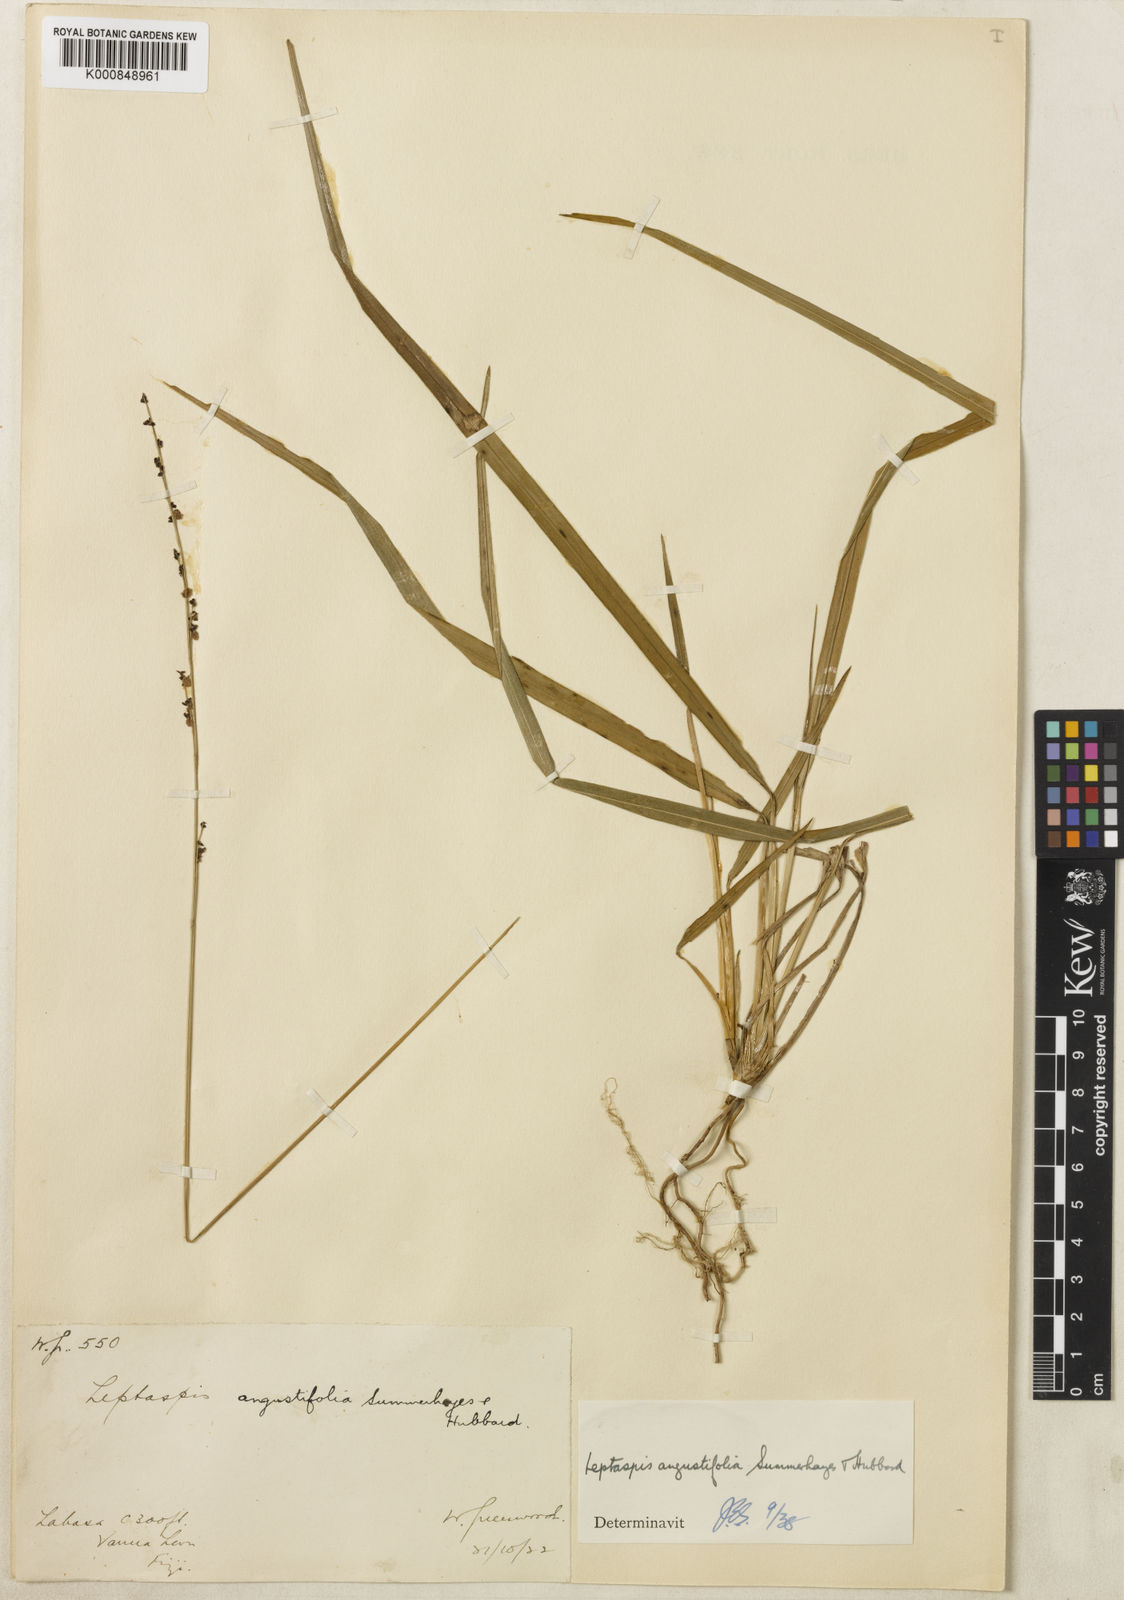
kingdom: Plantae
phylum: Tracheophyta
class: Liliopsida
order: Poales
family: Poaceae
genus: Leptaspis
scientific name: Leptaspis angustifolia
